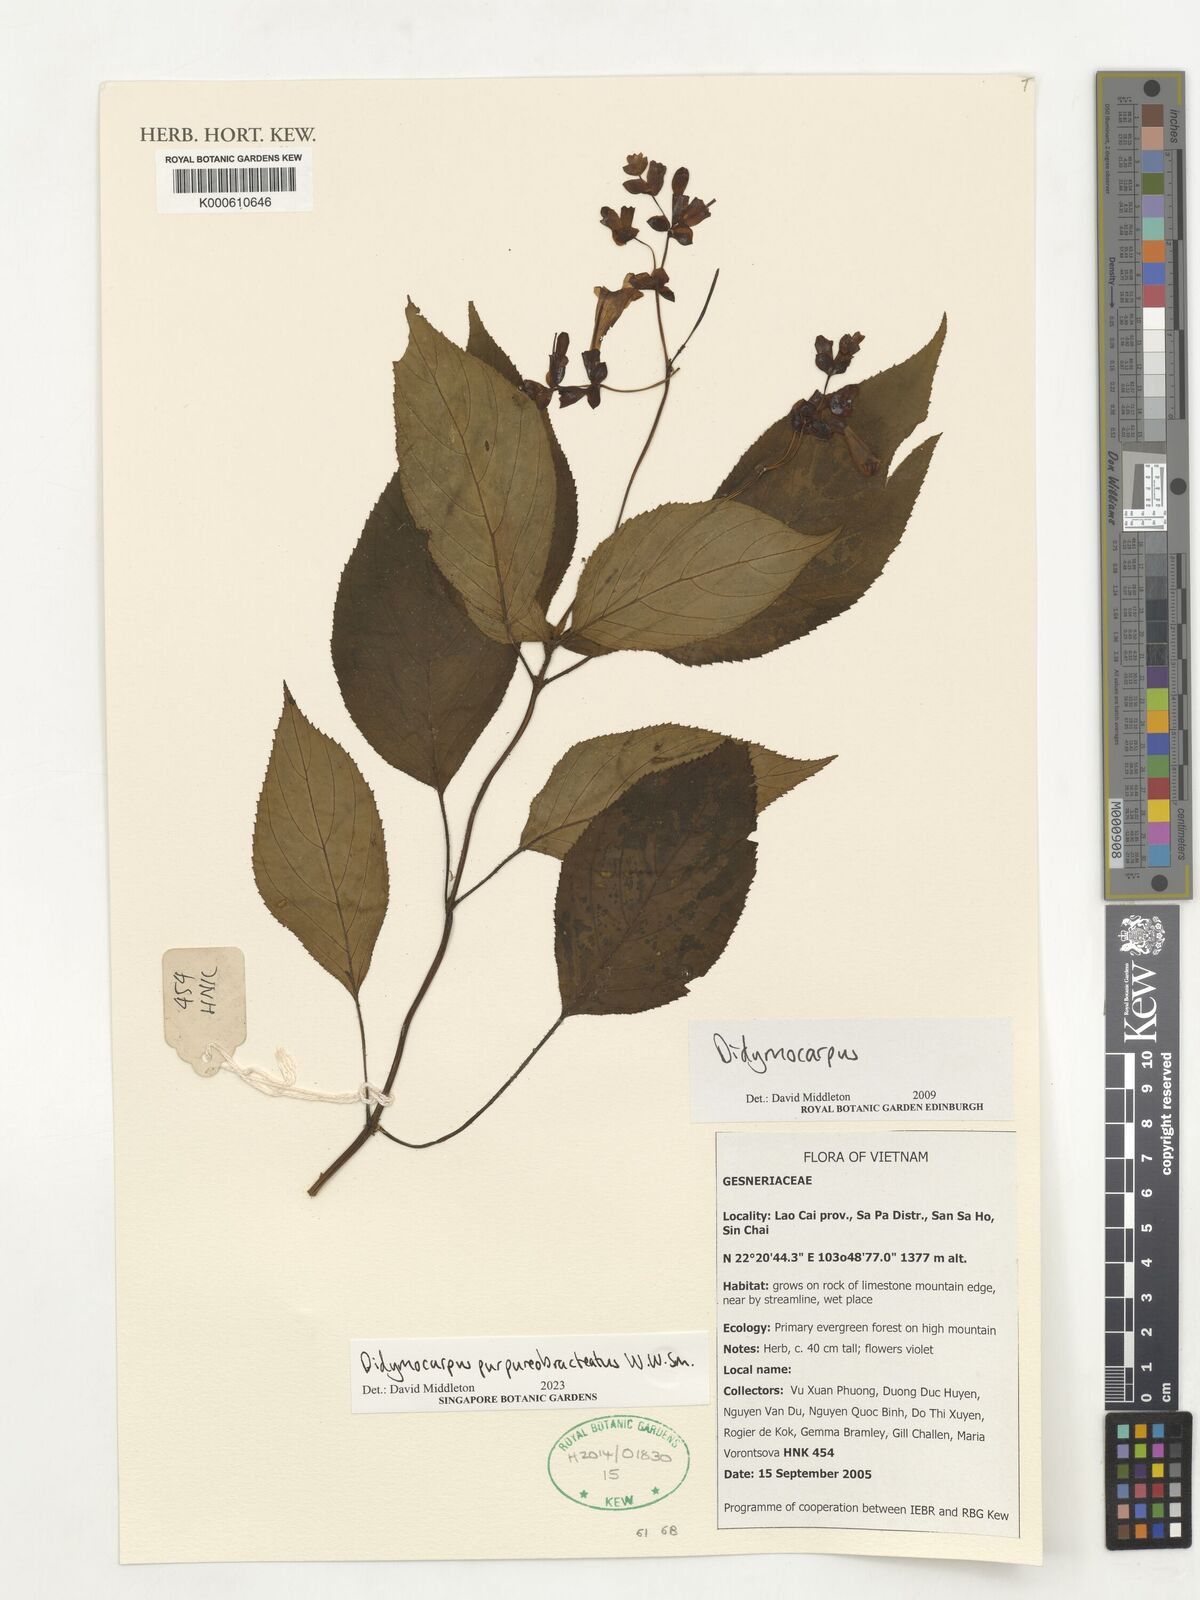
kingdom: Plantae
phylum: Tracheophyta
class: Magnoliopsida
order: Lamiales
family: Gesneriaceae
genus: Didymocarpus
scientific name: Didymocarpus purpureobracteatus
